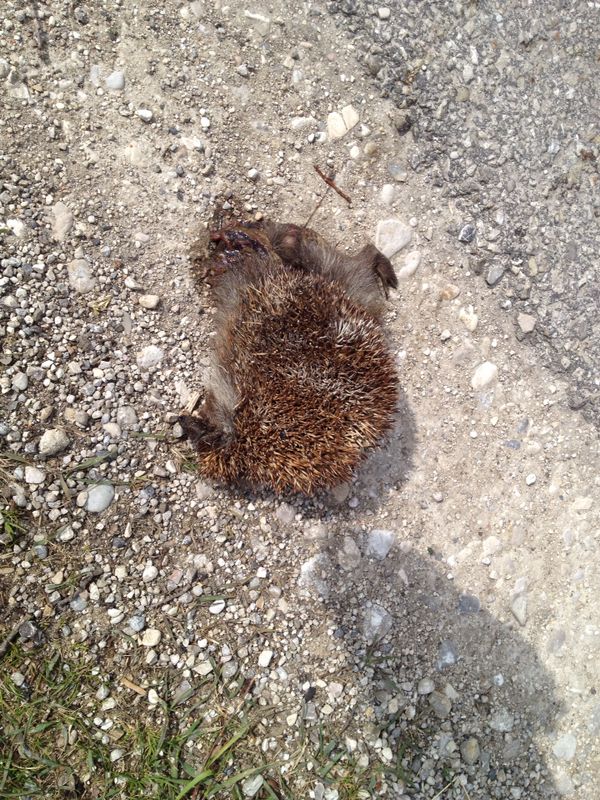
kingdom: Animalia
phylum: Chordata
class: Mammalia
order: Erinaceomorpha
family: Erinaceidae
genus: Erinaceus
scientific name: Erinaceus
